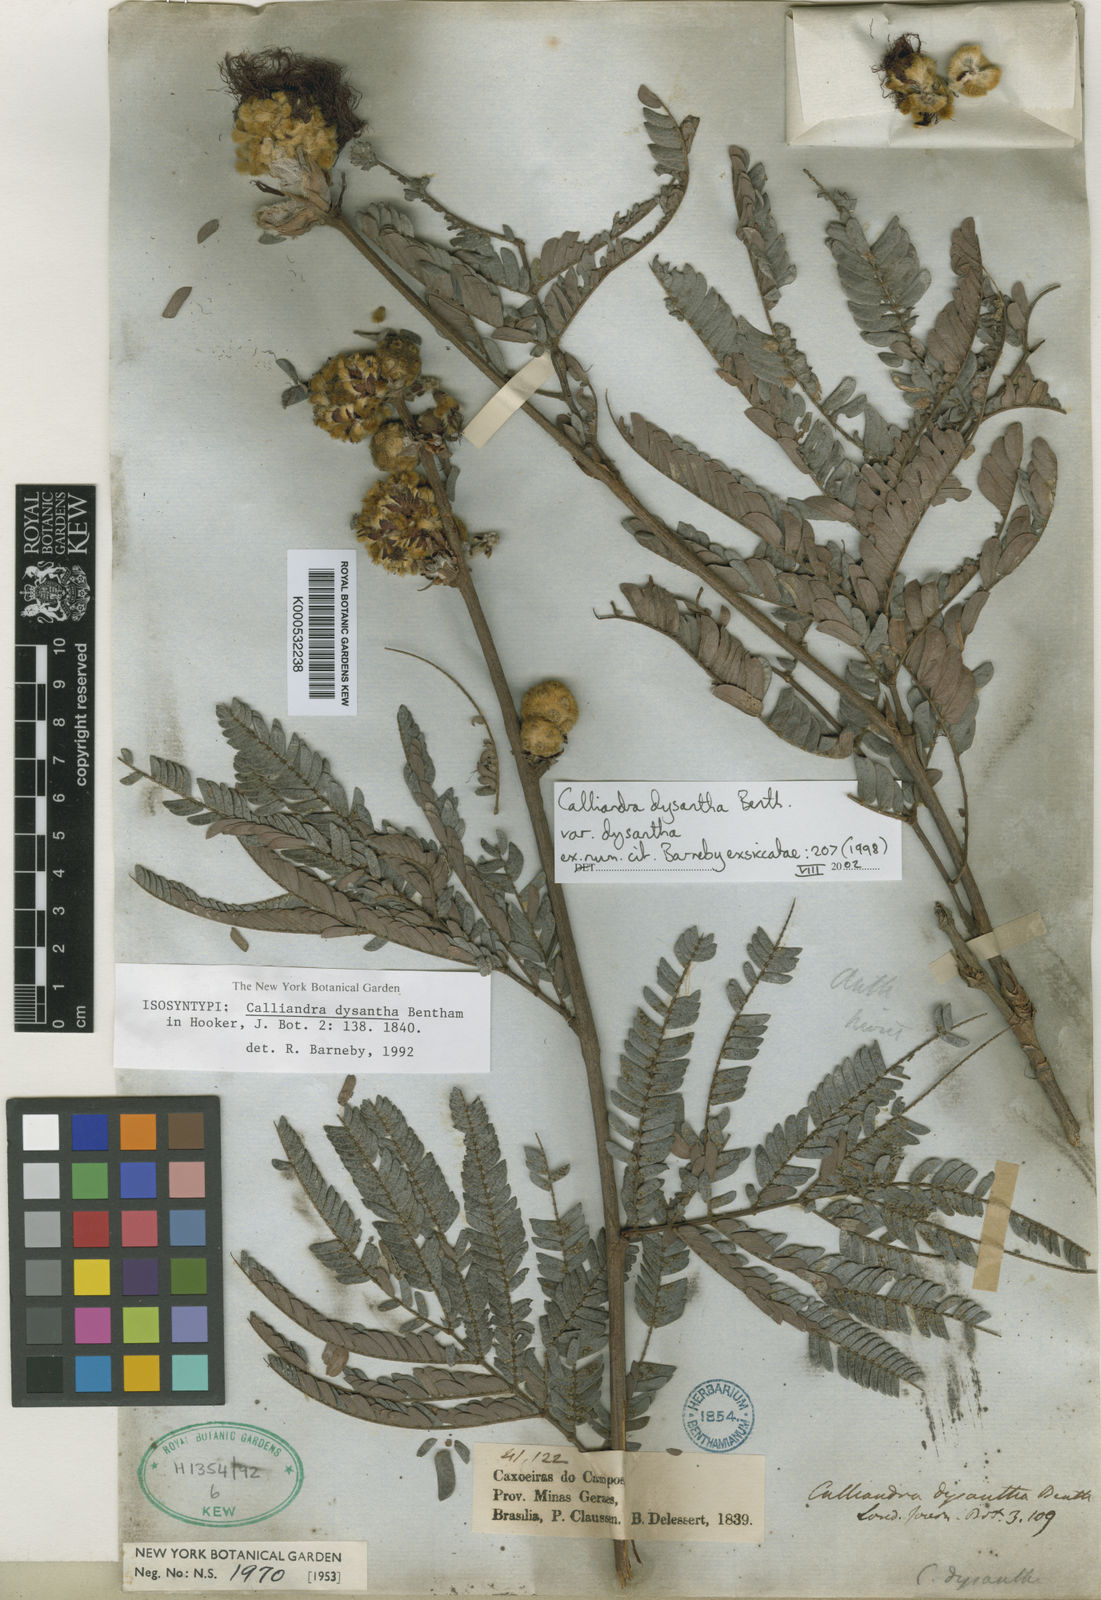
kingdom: Plantae
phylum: Tracheophyta
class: Magnoliopsida
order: Fabales
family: Fabaceae
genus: Calliandra
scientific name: Calliandra dysantha
